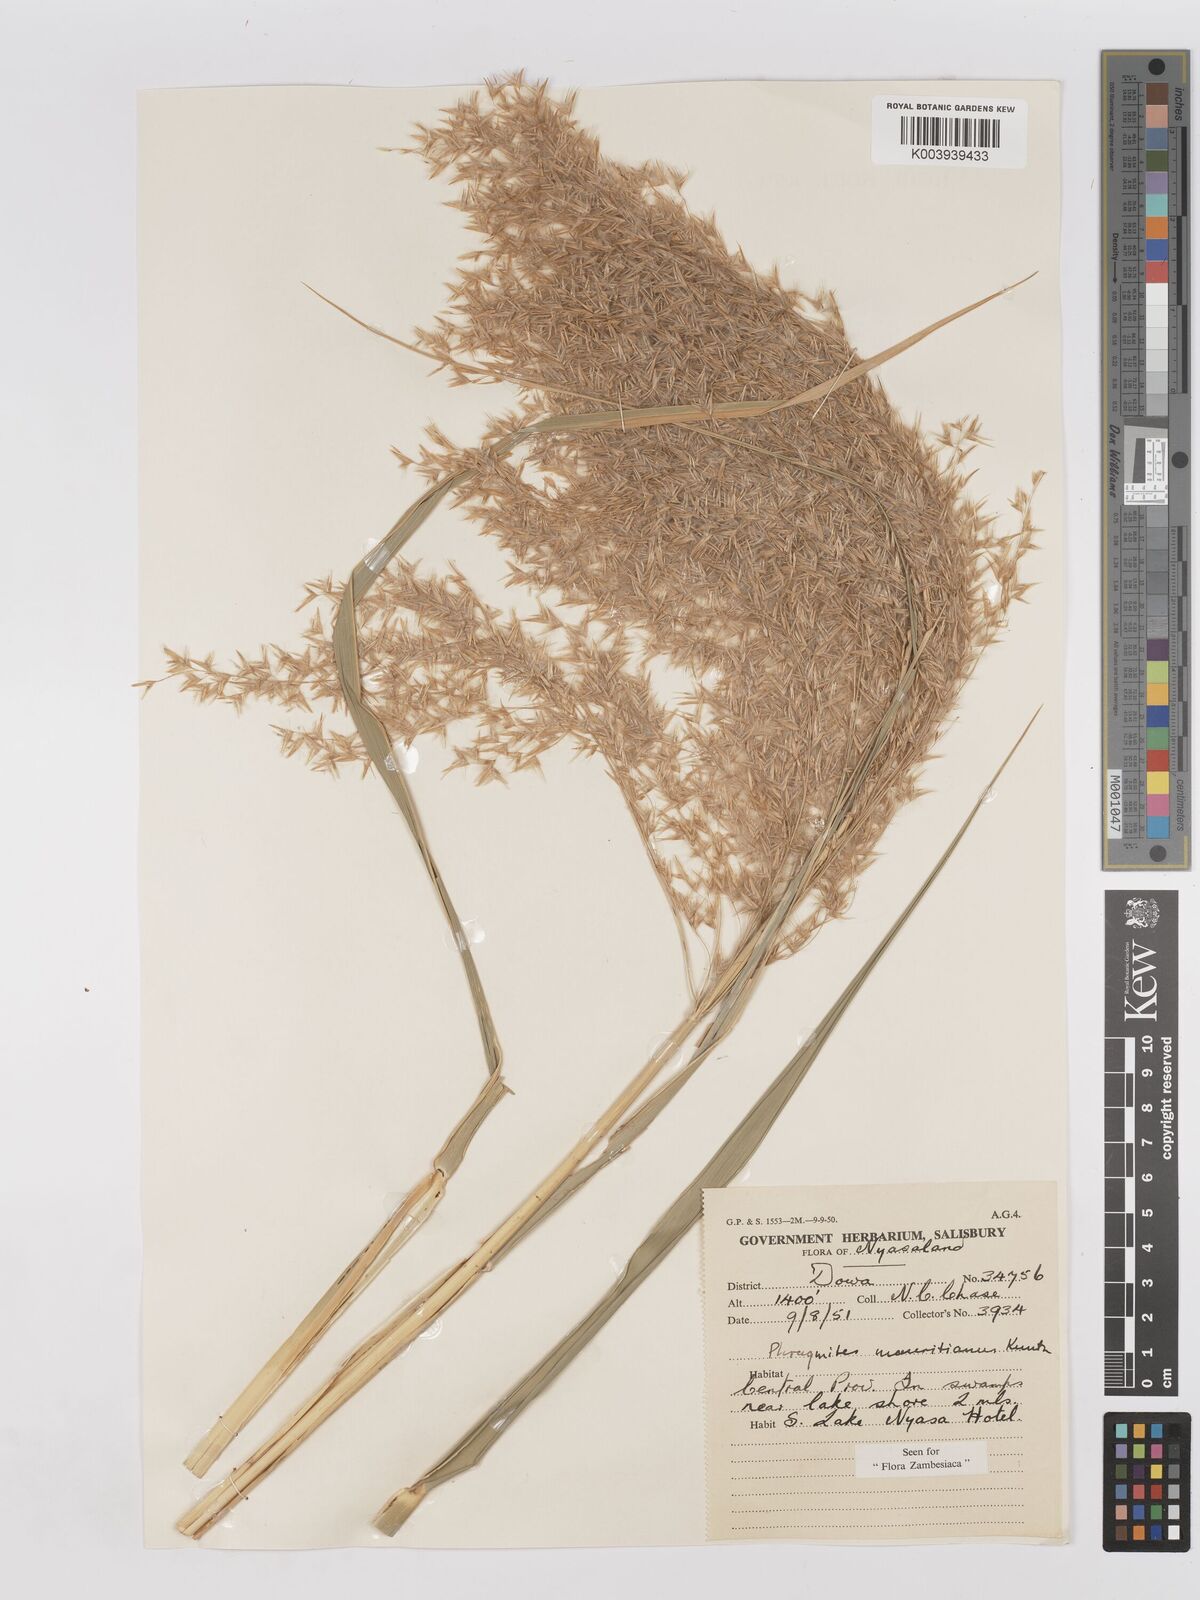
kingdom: Plantae
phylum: Tracheophyta
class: Liliopsida
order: Poales
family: Poaceae
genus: Phragmites
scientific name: Phragmites mauritianus
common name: Reed grass
